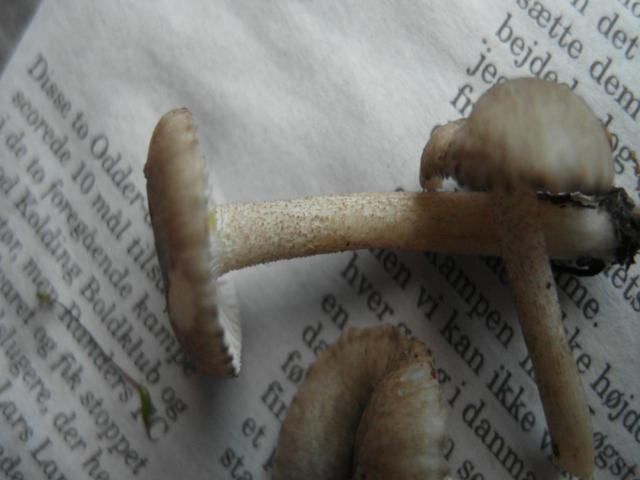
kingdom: Fungi
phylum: Basidiomycota
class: Agaricomycetes
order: Agaricales
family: Hygrophoraceae
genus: Hygrophorus
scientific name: Hygrophorus pustulatus
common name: mørkprikket sneglehat
